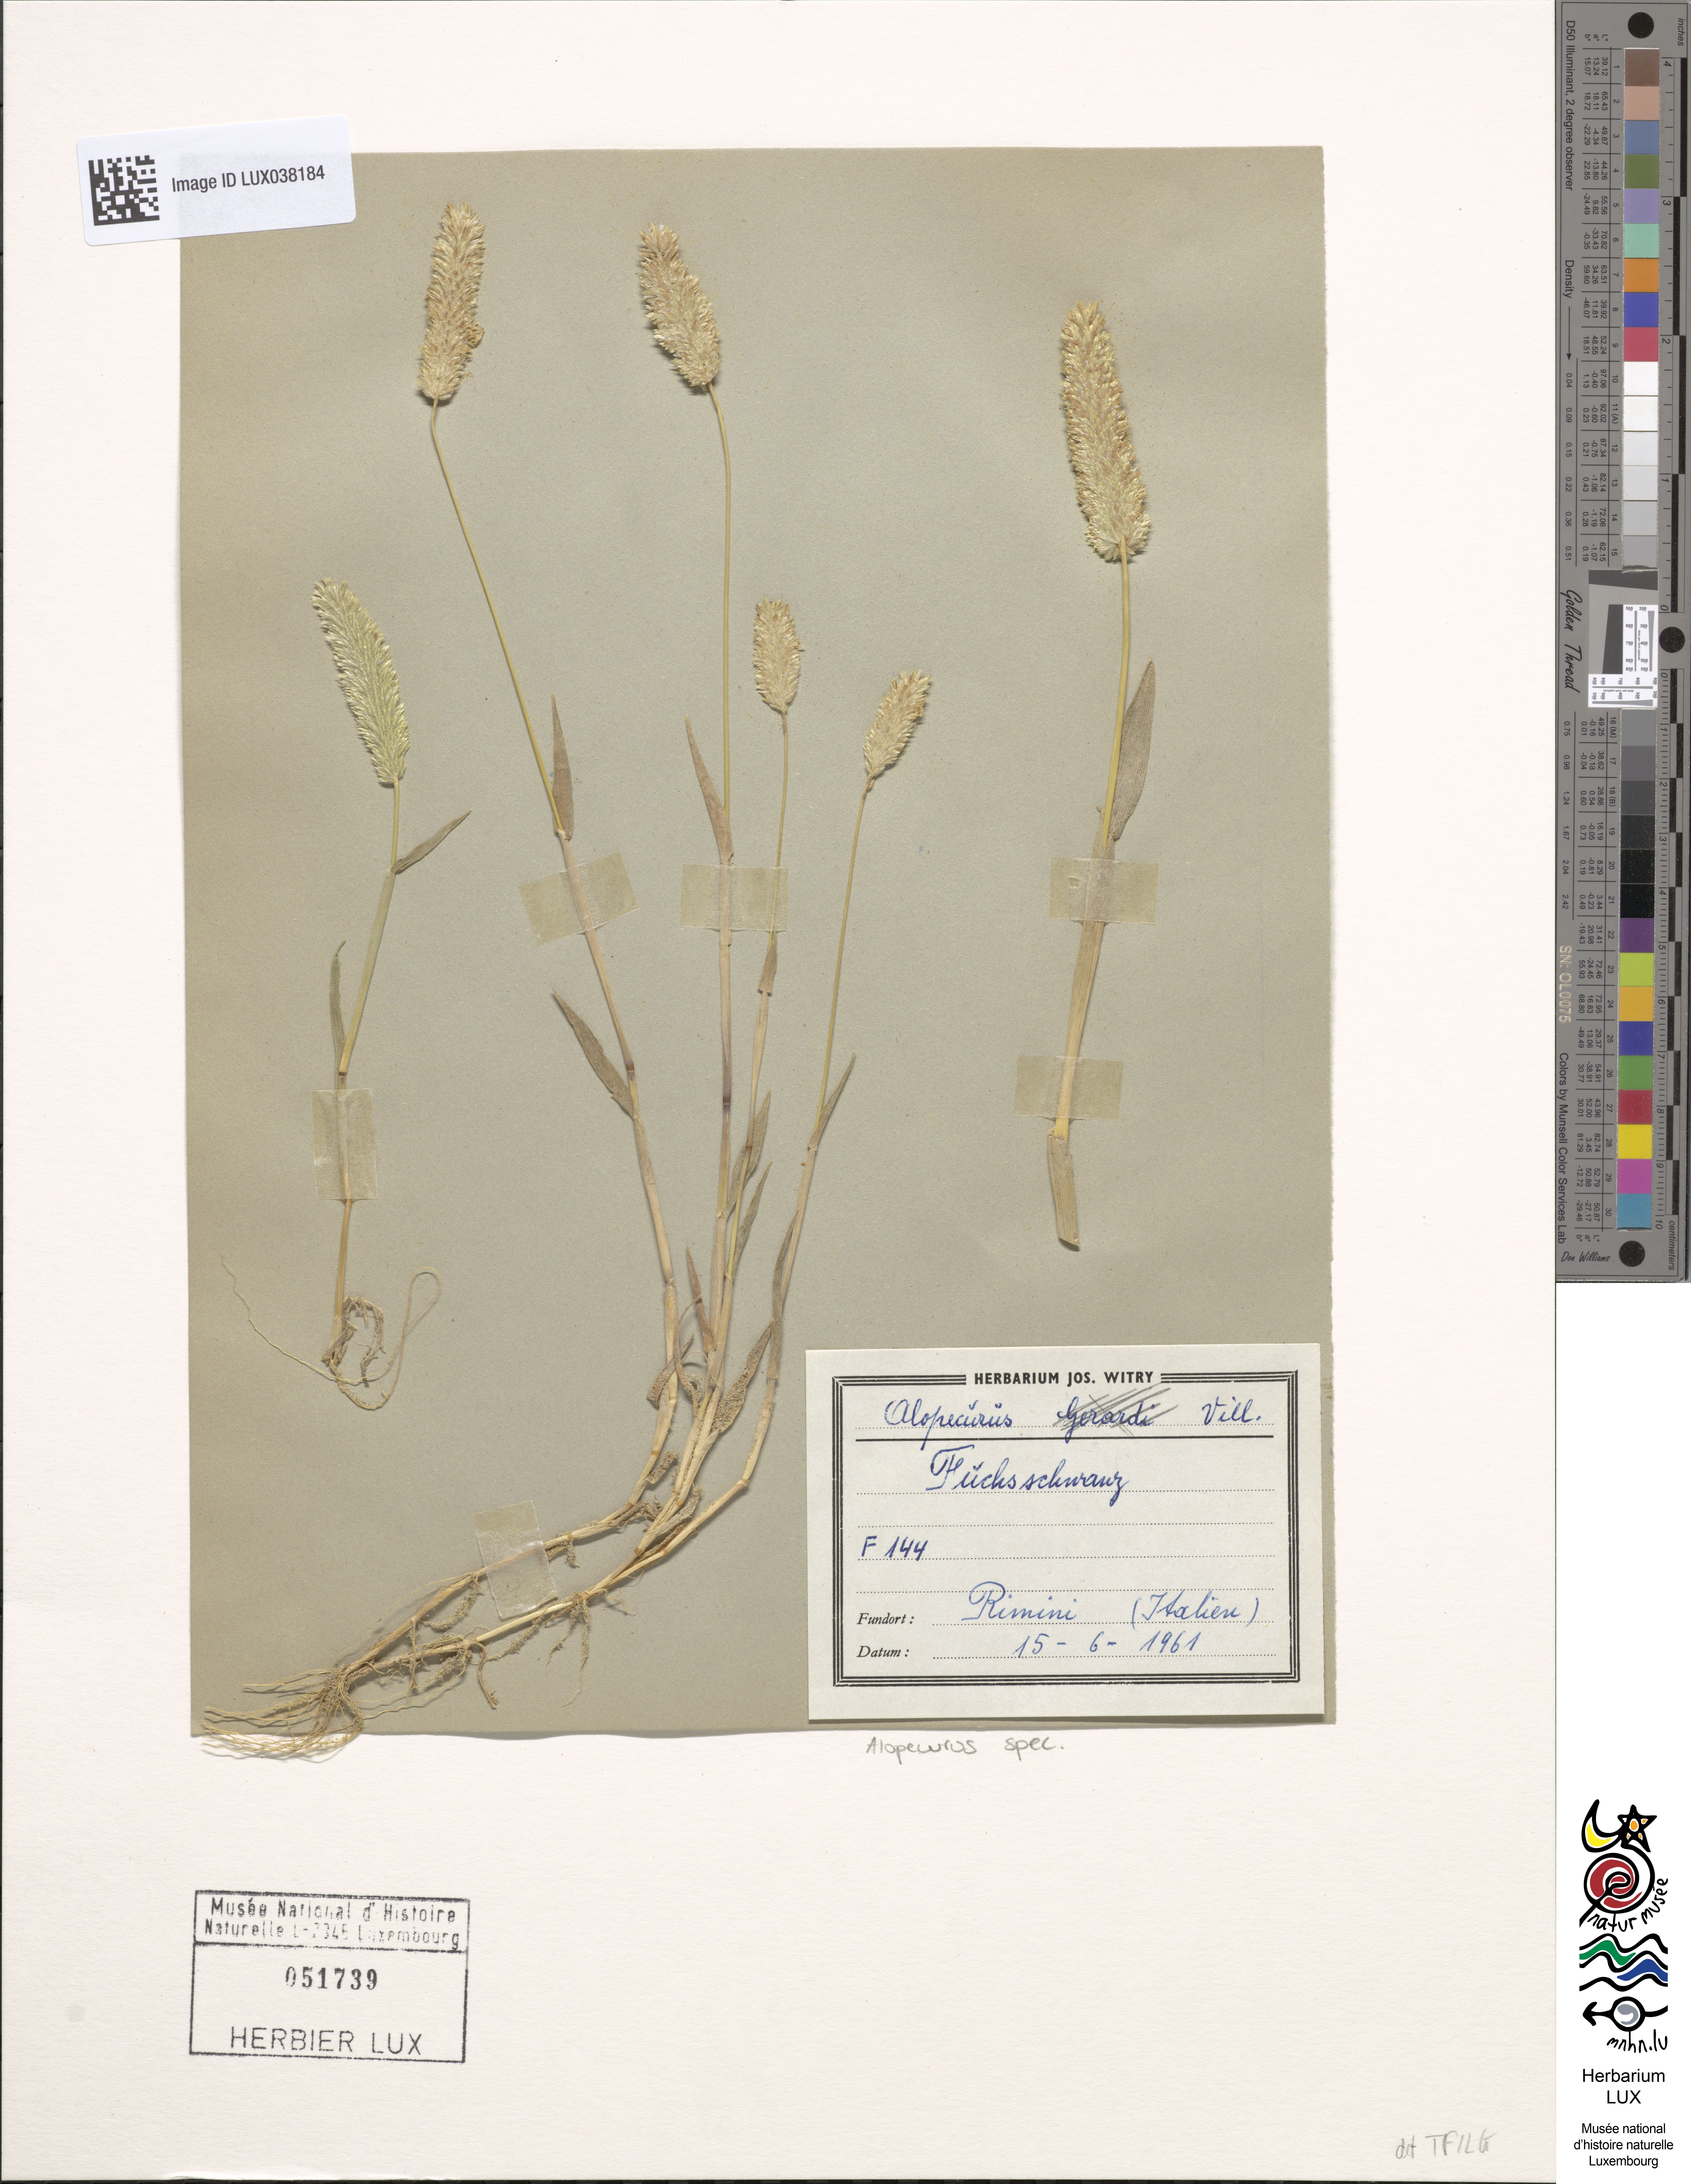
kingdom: Plantae
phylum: Tracheophyta
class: Liliopsida
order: Poales
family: Poaceae
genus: Alopecurus
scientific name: Alopecurus
